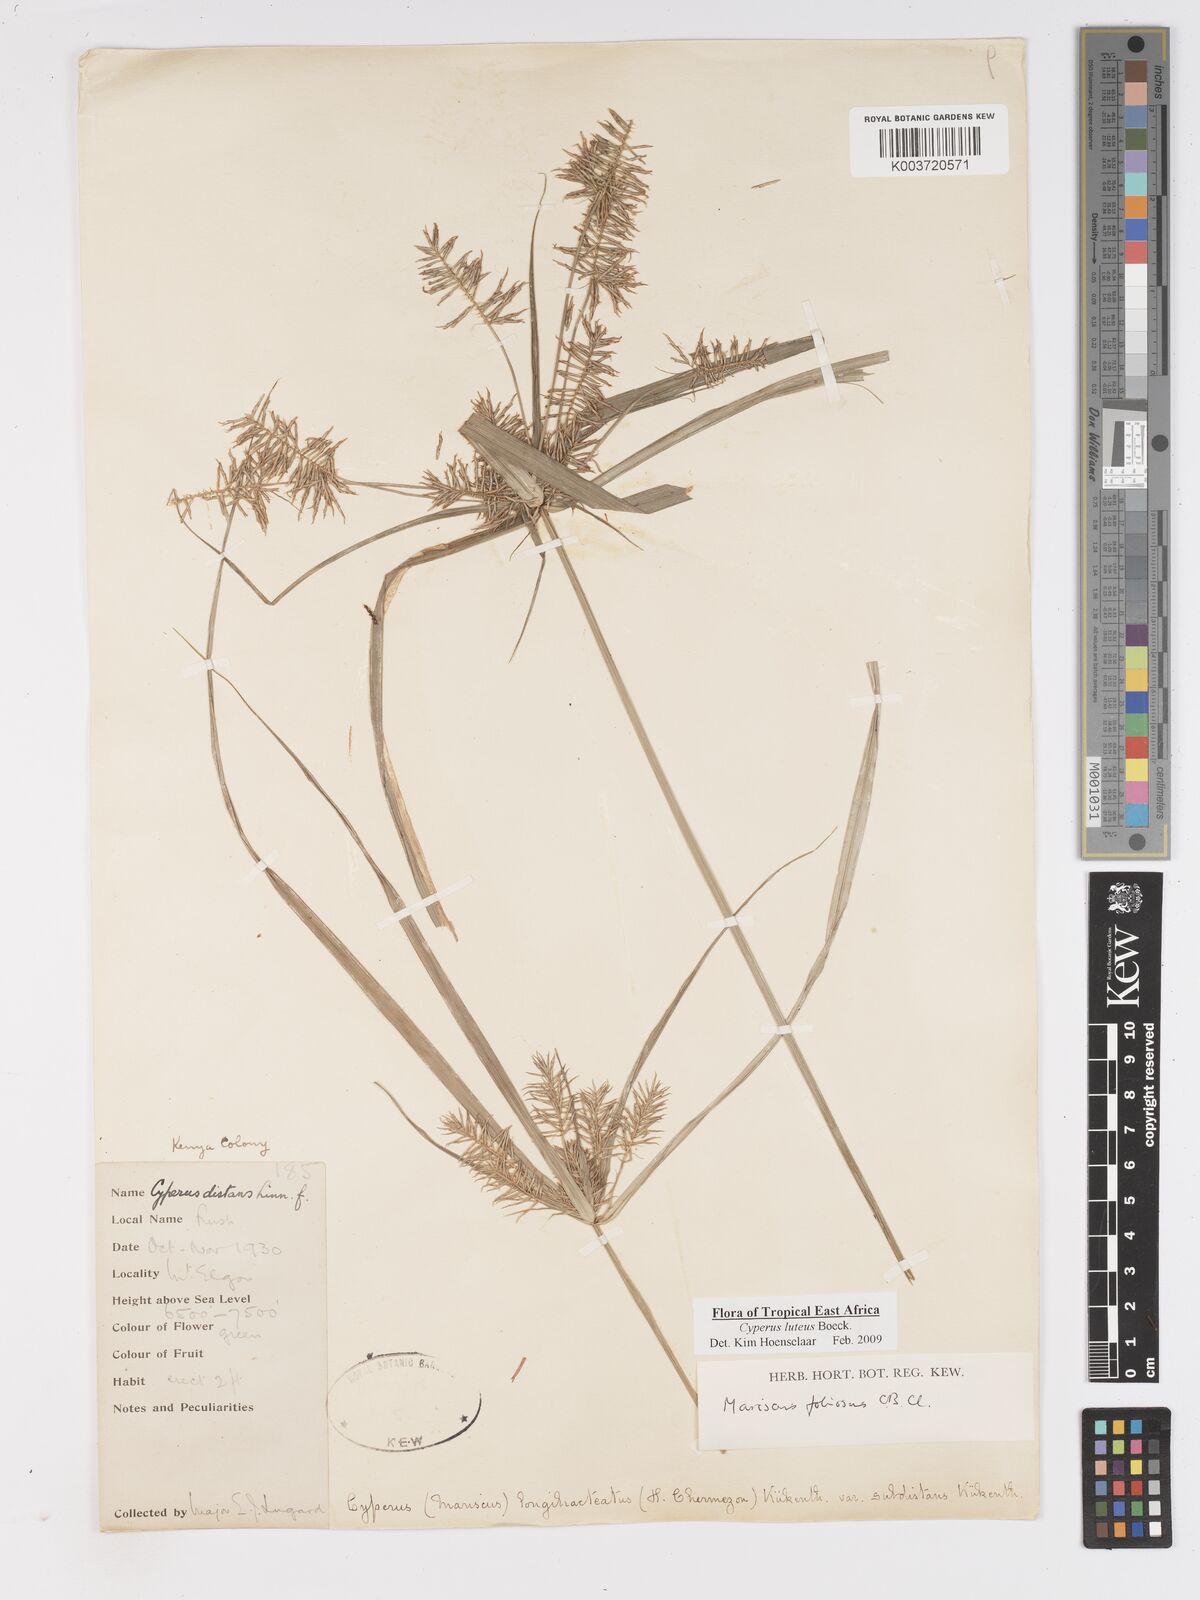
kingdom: Plantae
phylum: Tracheophyta
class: Liliopsida
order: Poales
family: Cyperaceae
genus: Cyperus
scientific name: Cyperus luteus
